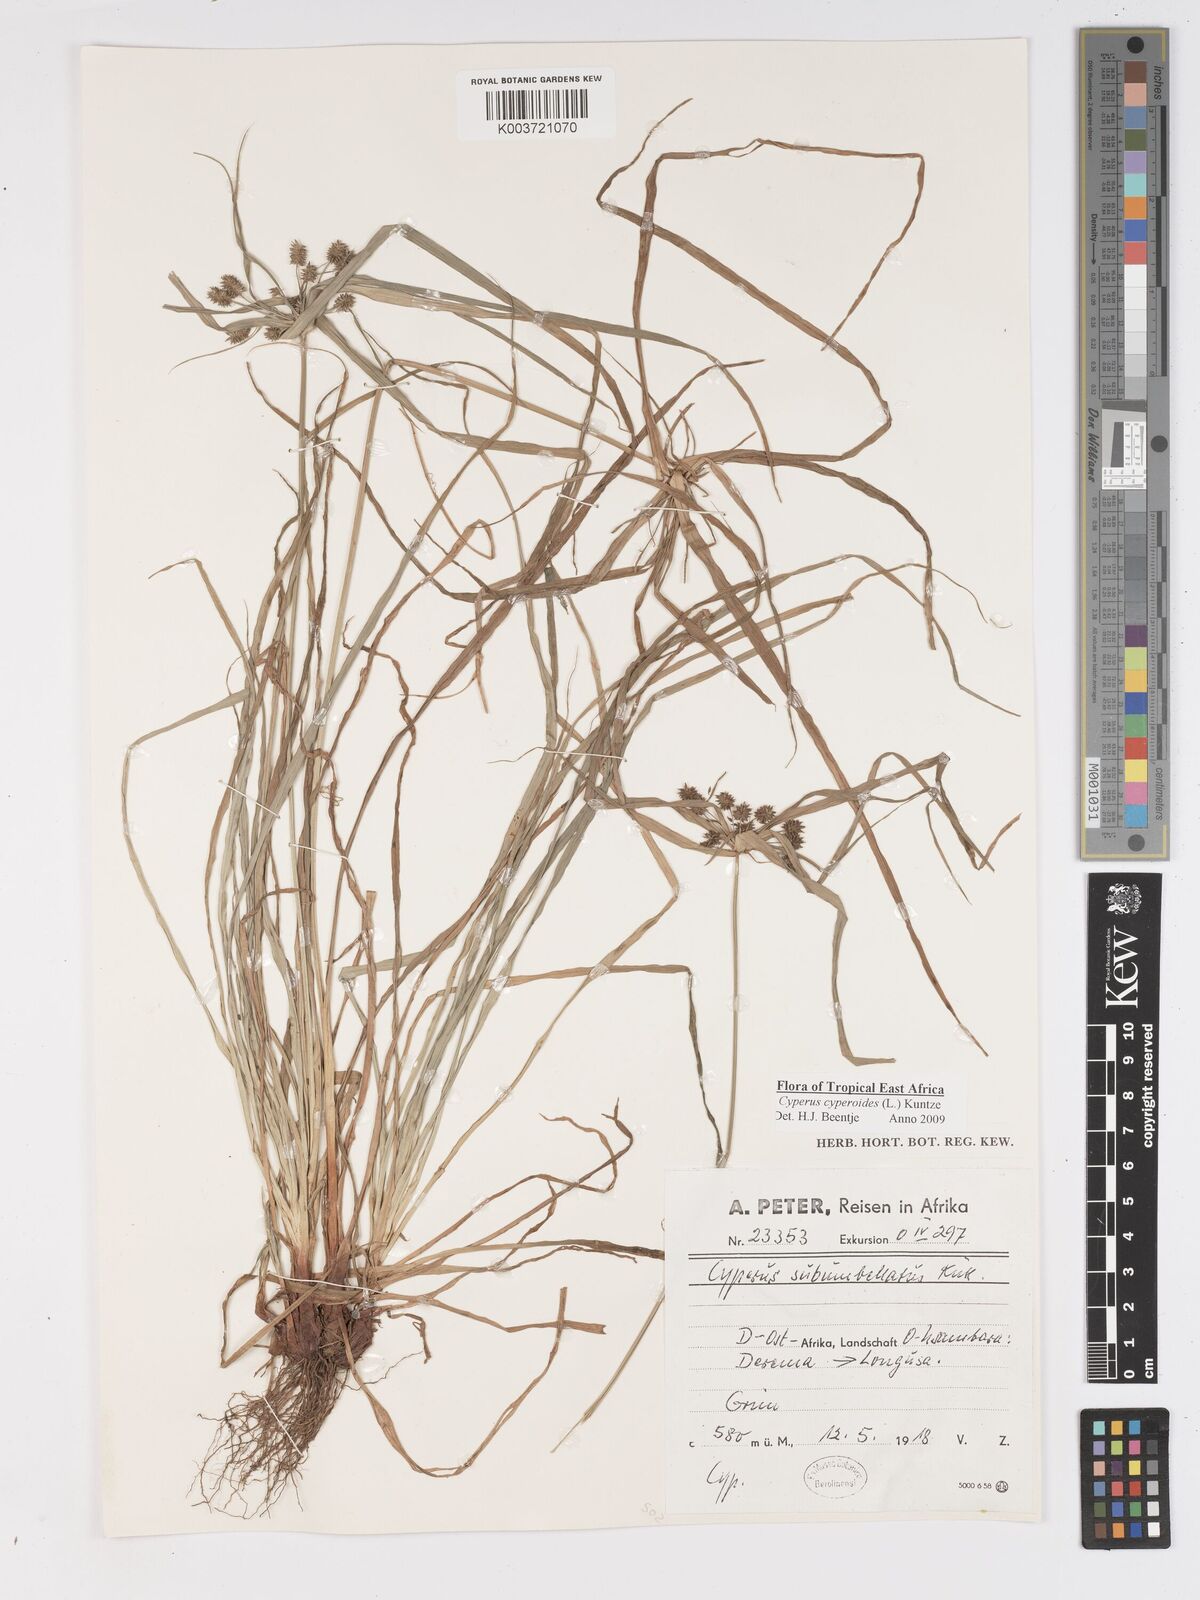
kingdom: Plantae
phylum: Tracheophyta
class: Liliopsida
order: Poales
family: Cyperaceae
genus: Cyperus
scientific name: Cyperus cyperoides
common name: Pacific island flat sedge
